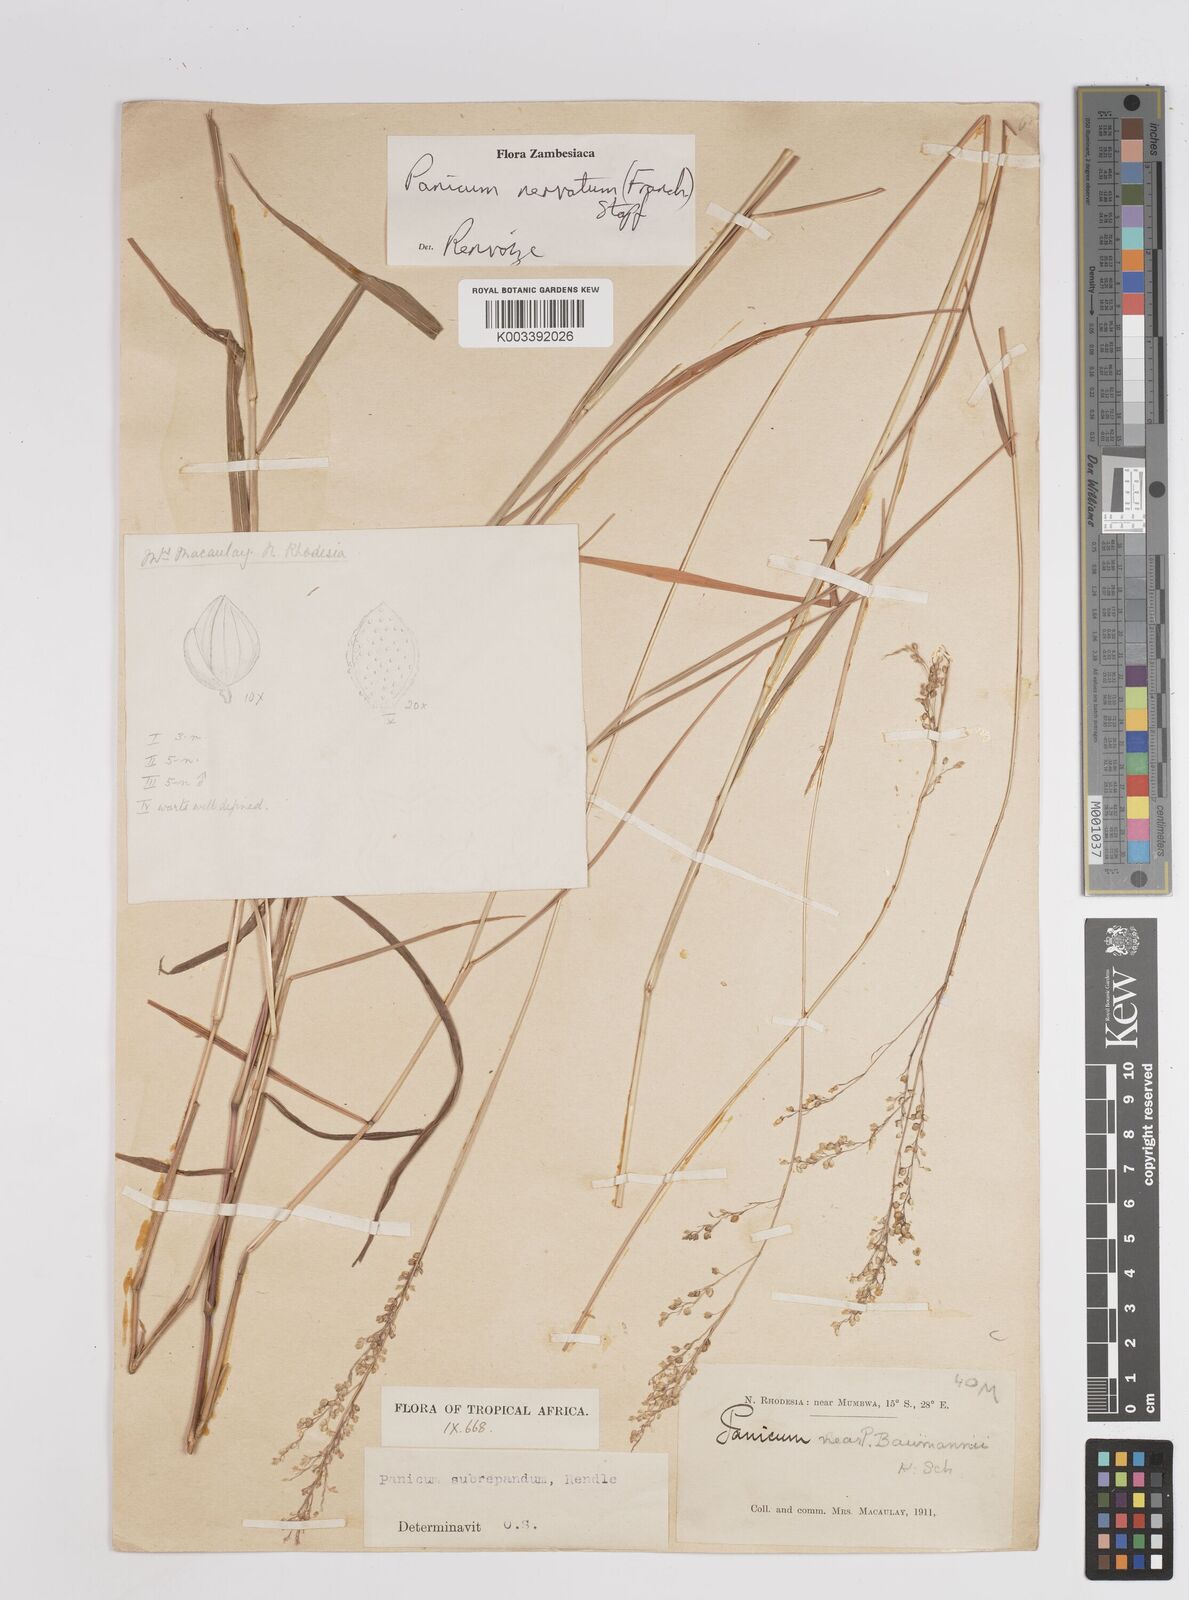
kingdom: Plantae
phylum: Tracheophyta
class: Liliopsida
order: Poales
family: Poaceae
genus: Trichanthecium
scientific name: Trichanthecium nervatum
